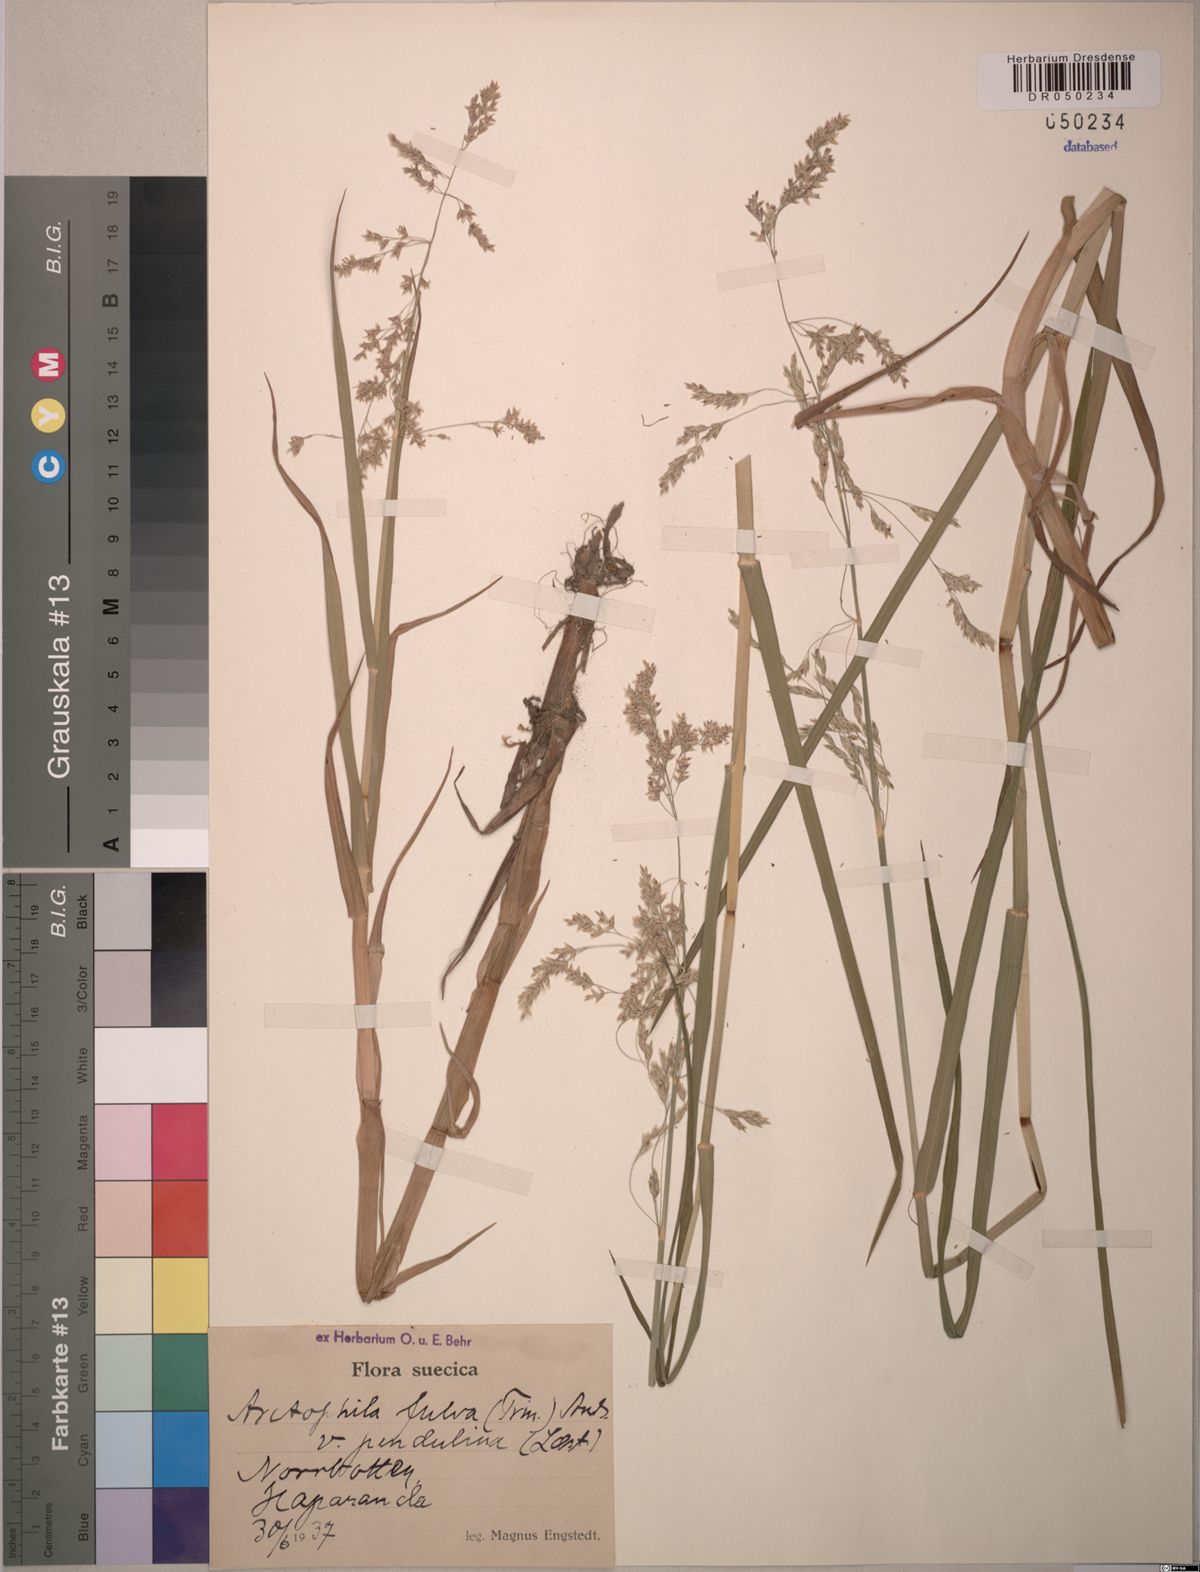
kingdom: Plantae
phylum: Tracheophyta
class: Liliopsida
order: Poales
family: Poaceae
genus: Dupontia
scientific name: Dupontia fulva
